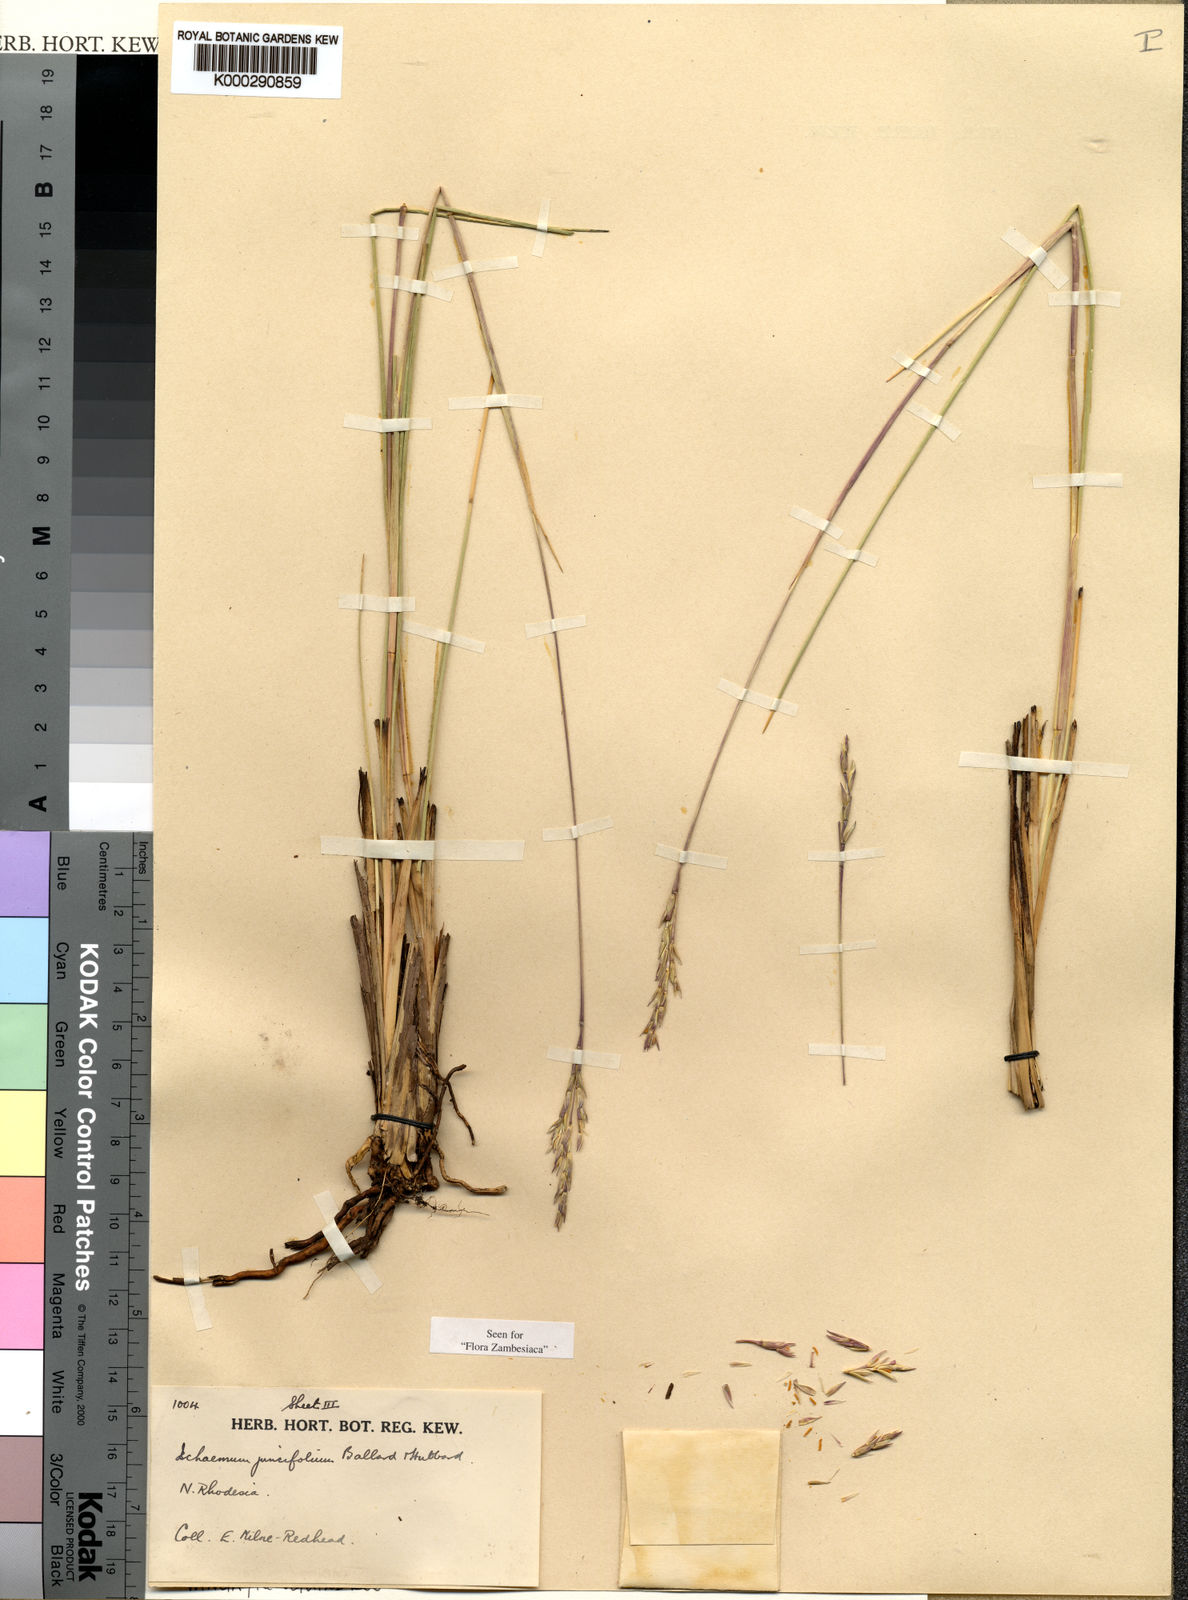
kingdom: Plantae
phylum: Tracheophyta
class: Liliopsida
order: Poales
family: Poaceae
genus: Phacelurus
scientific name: Phacelurus franksiae
